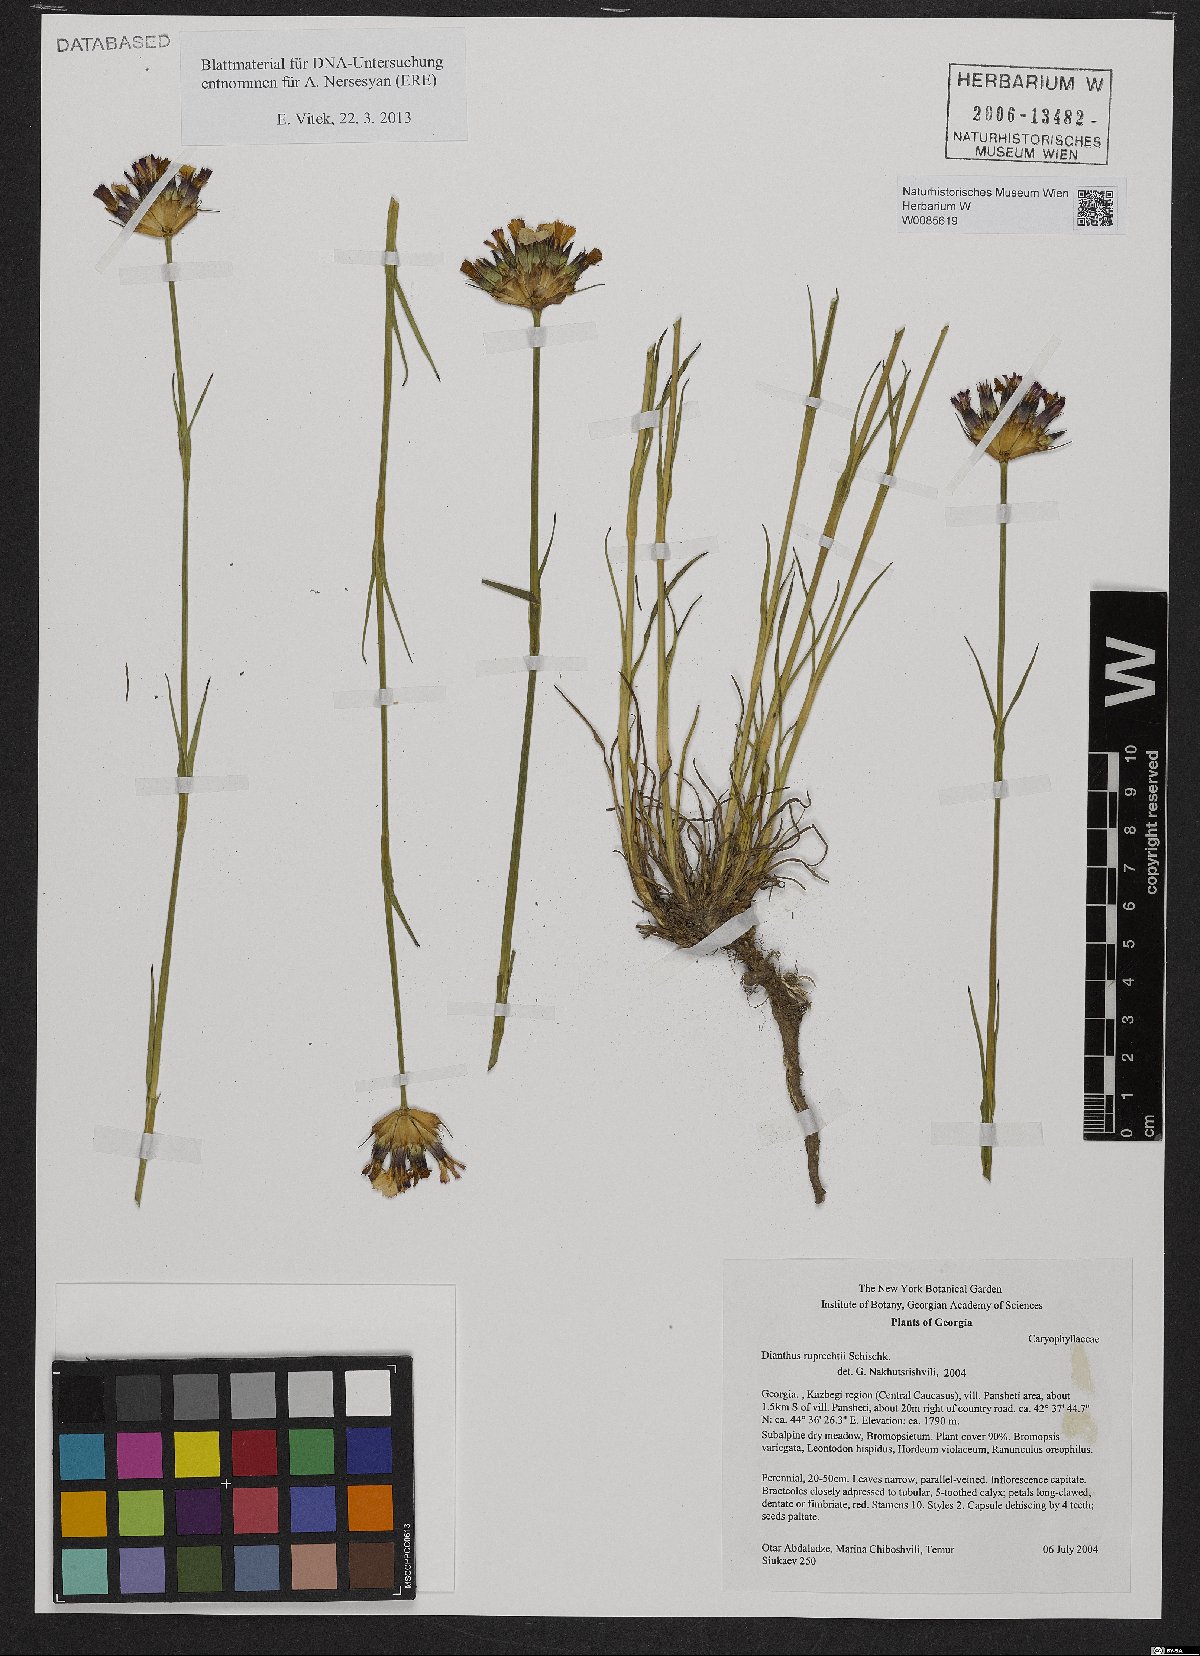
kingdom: Plantae
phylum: Tracheophyta
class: Magnoliopsida
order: Caryophyllales
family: Caryophyllaceae
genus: Dianthus
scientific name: Dianthus ruprechtii
